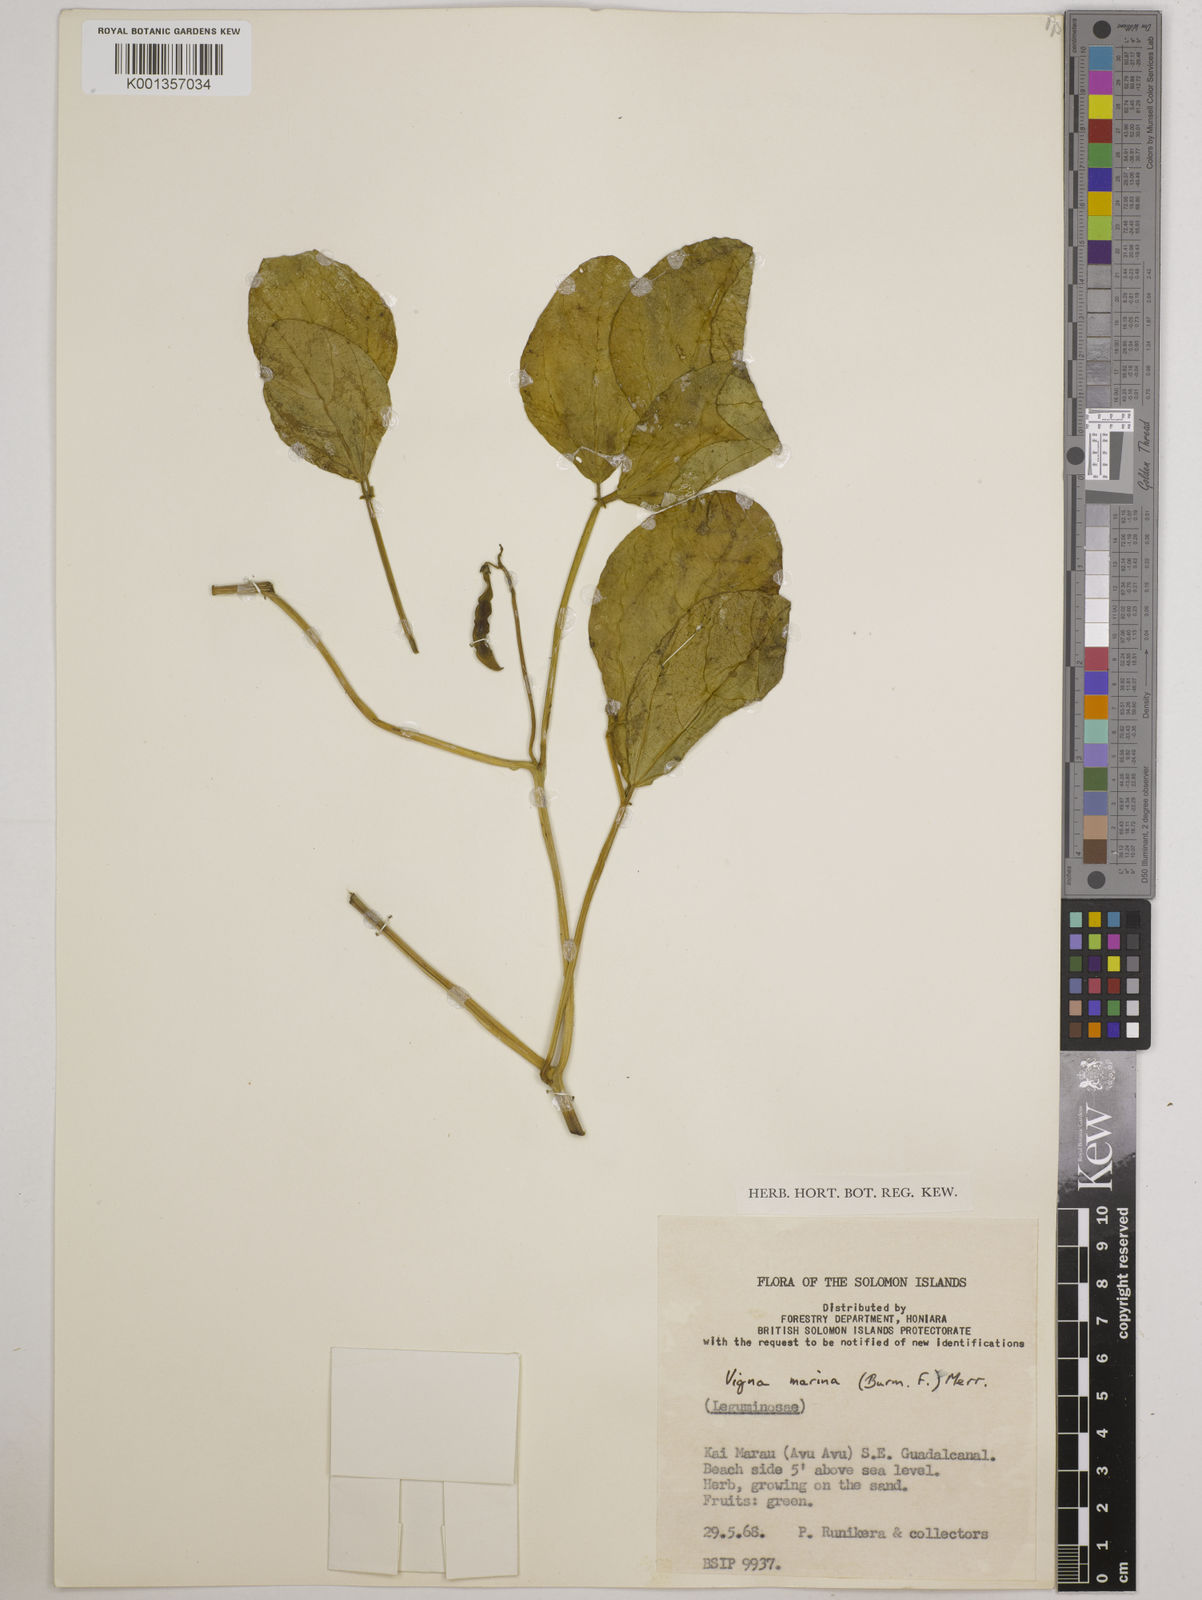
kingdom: Plantae
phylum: Tracheophyta
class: Magnoliopsida
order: Fabales
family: Fabaceae
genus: Vigna
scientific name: Vigna marina
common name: Dune-bean
